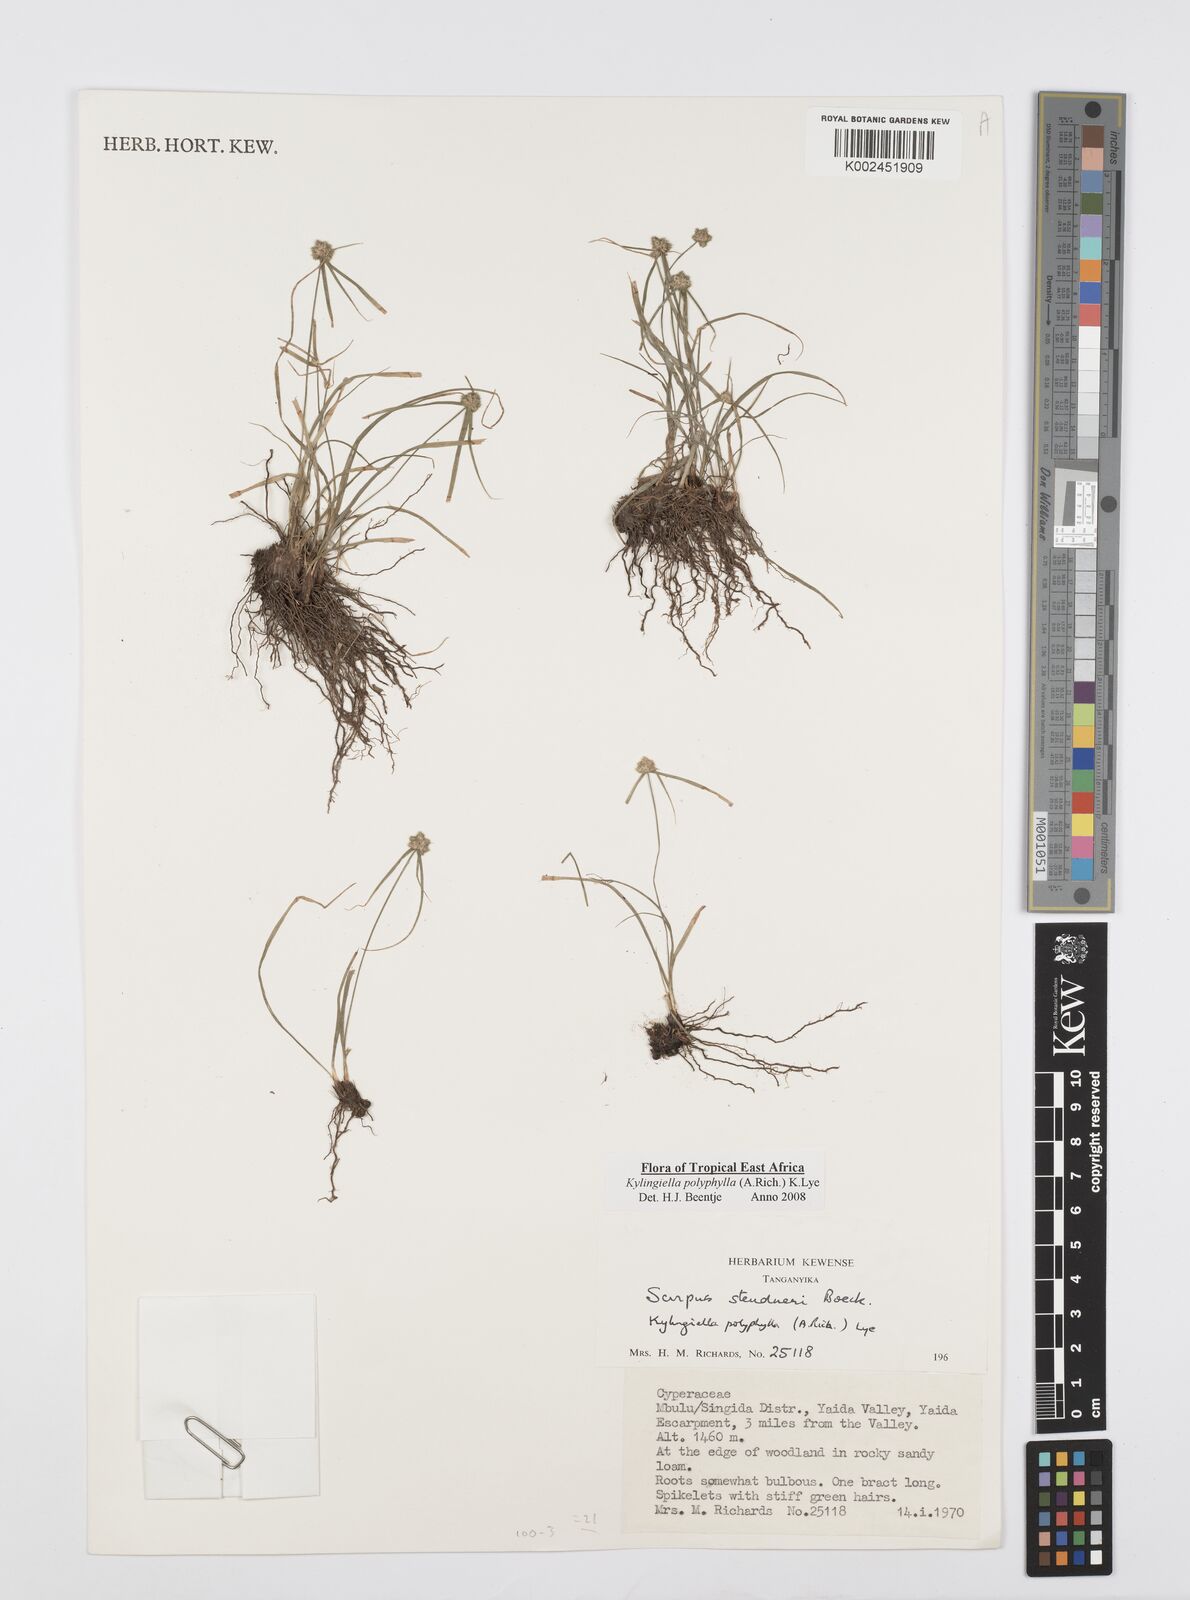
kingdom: Plantae
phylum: Tracheophyta
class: Liliopsida
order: Poales
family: Cyperaceae
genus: Cyperus
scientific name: Cyperus bulbosus
